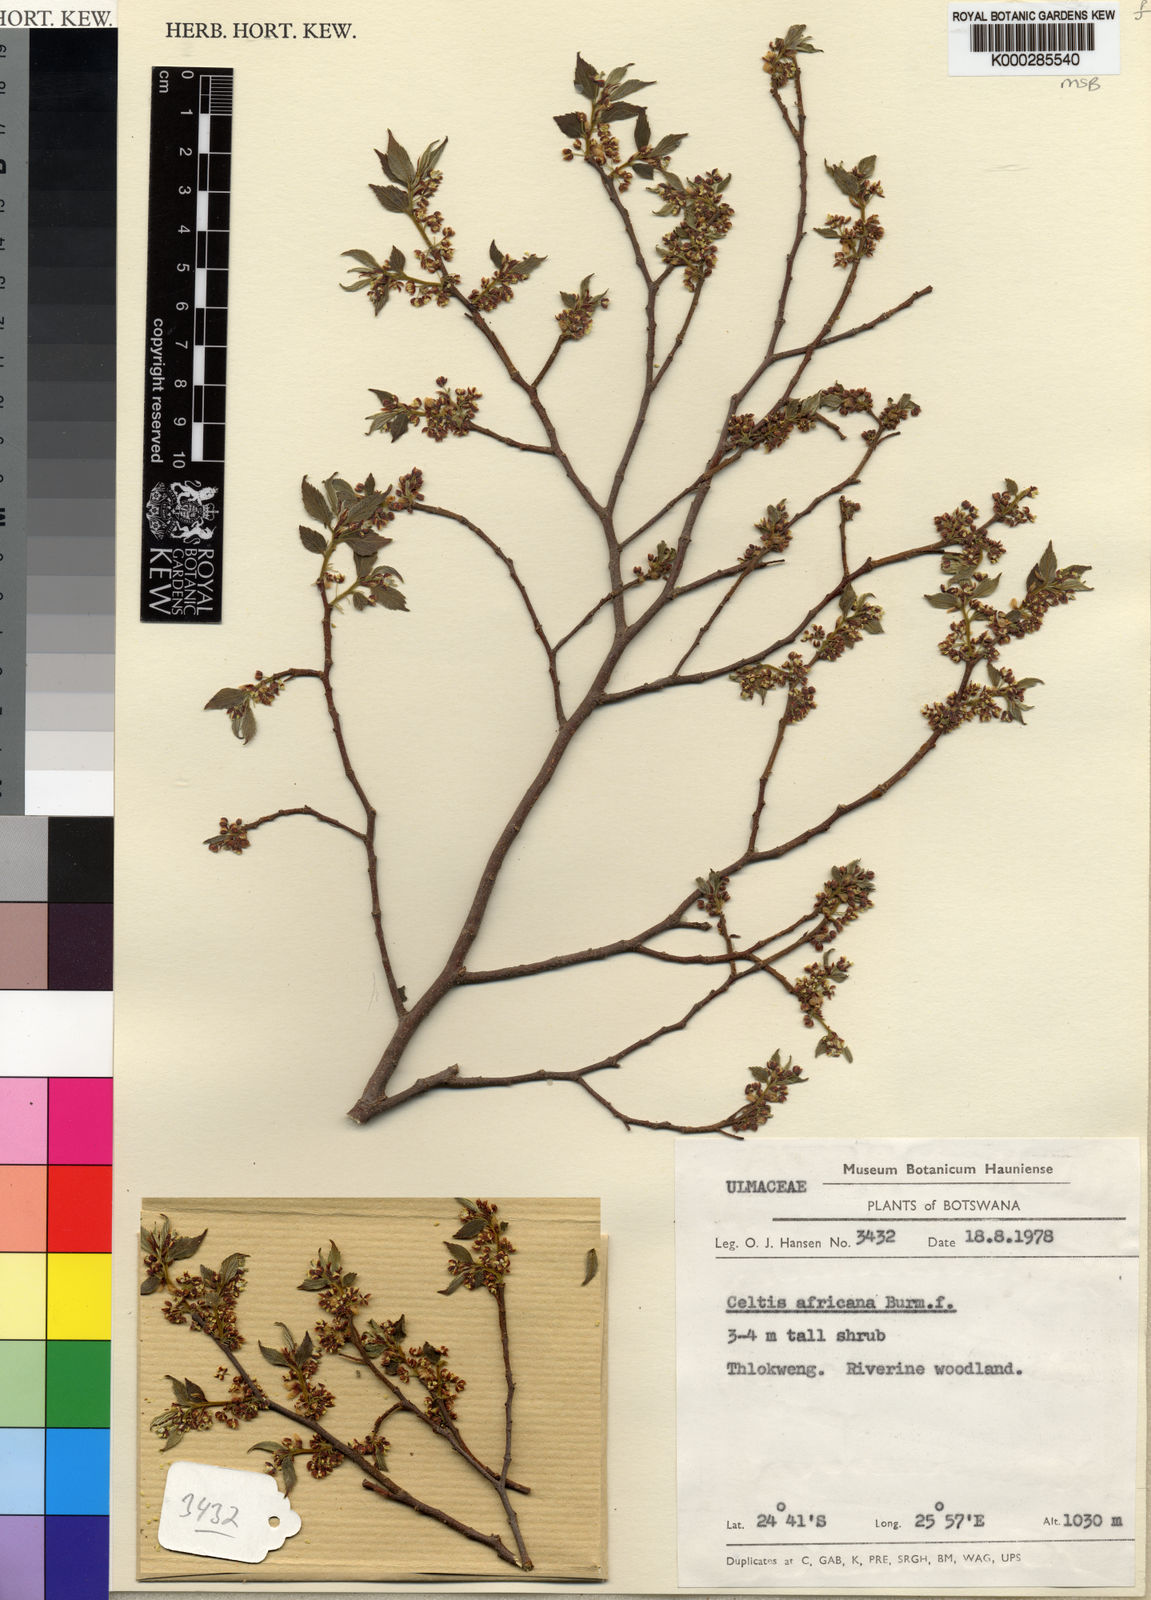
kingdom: Plantae
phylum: Tracheophyta
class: Magnoliopsida
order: Rosales
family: Cannabaceae
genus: Celtis
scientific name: Celtis africana
